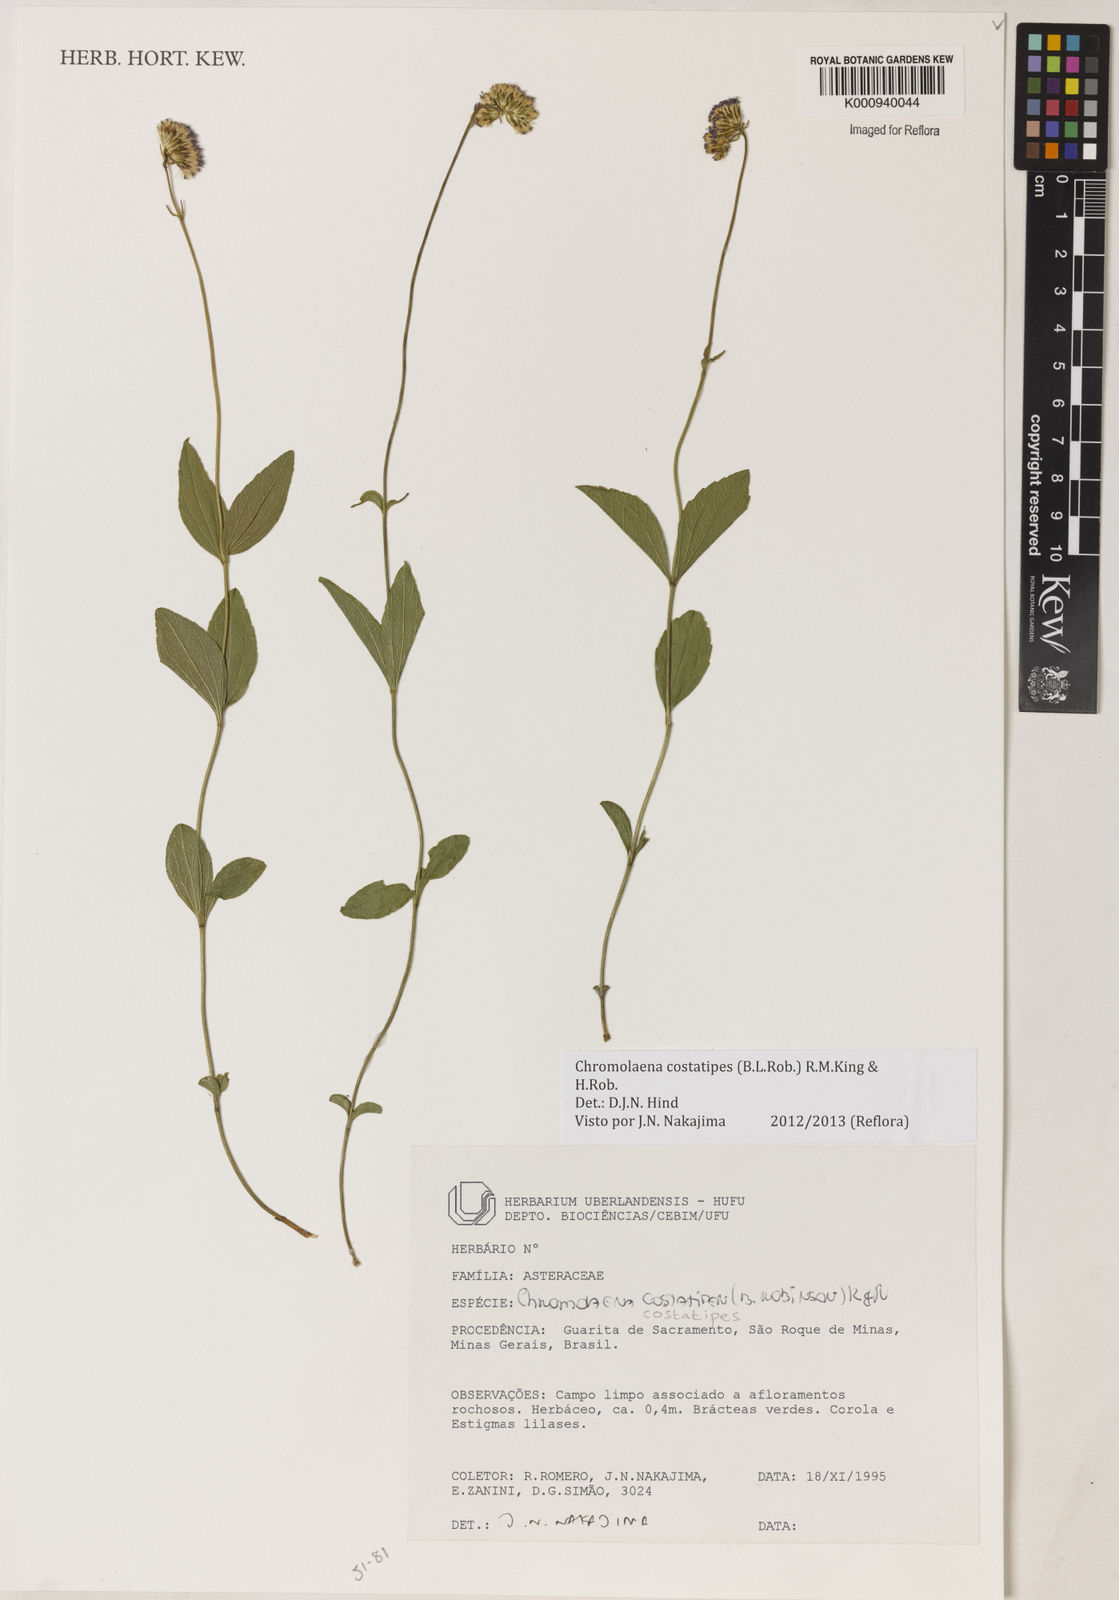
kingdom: Plantae
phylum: Tracheophyta
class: Magnoliopsida
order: Asterales
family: Asteraceae
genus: Chromolaena
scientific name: Chromolaena costatipes
